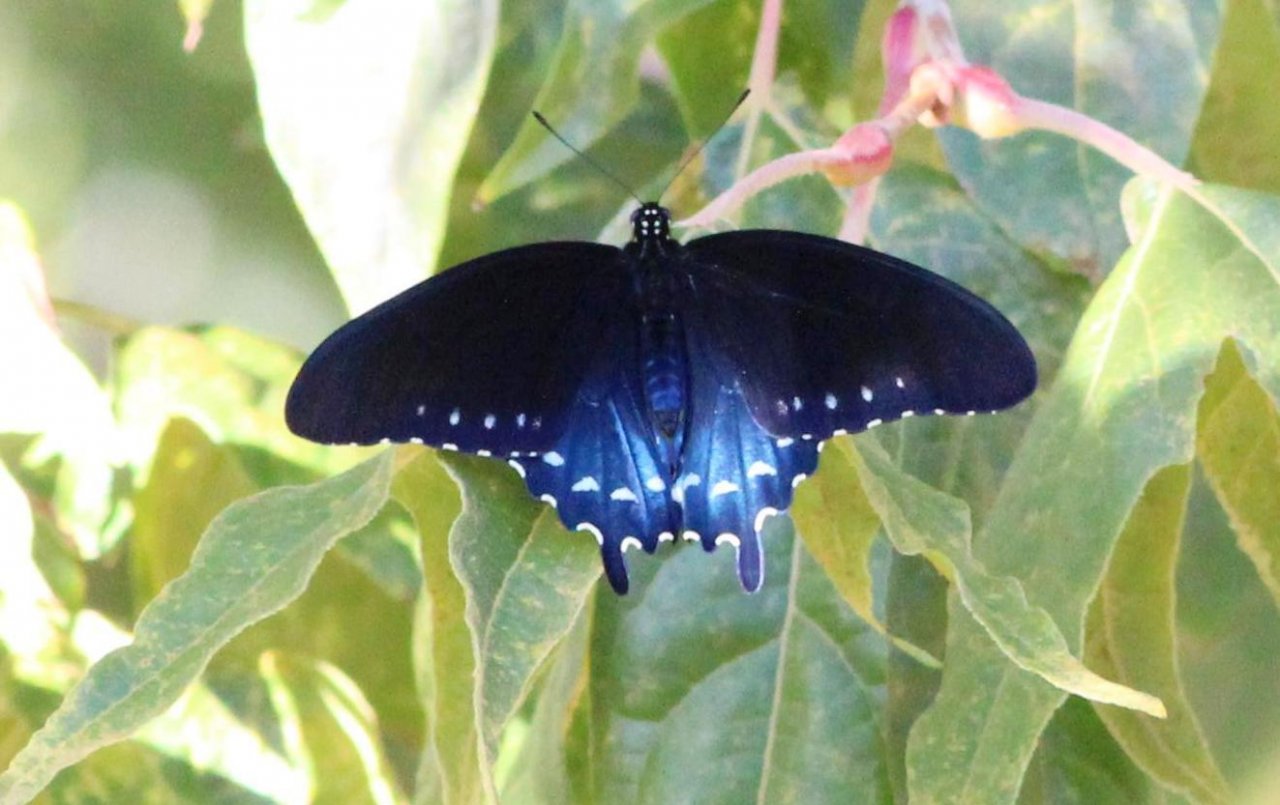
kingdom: Animalia
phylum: Arthropoda
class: Insecta
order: Lepidoptera
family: Papilionidae
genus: Battus
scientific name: Battus philenor
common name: Pipevine Swallowtail
